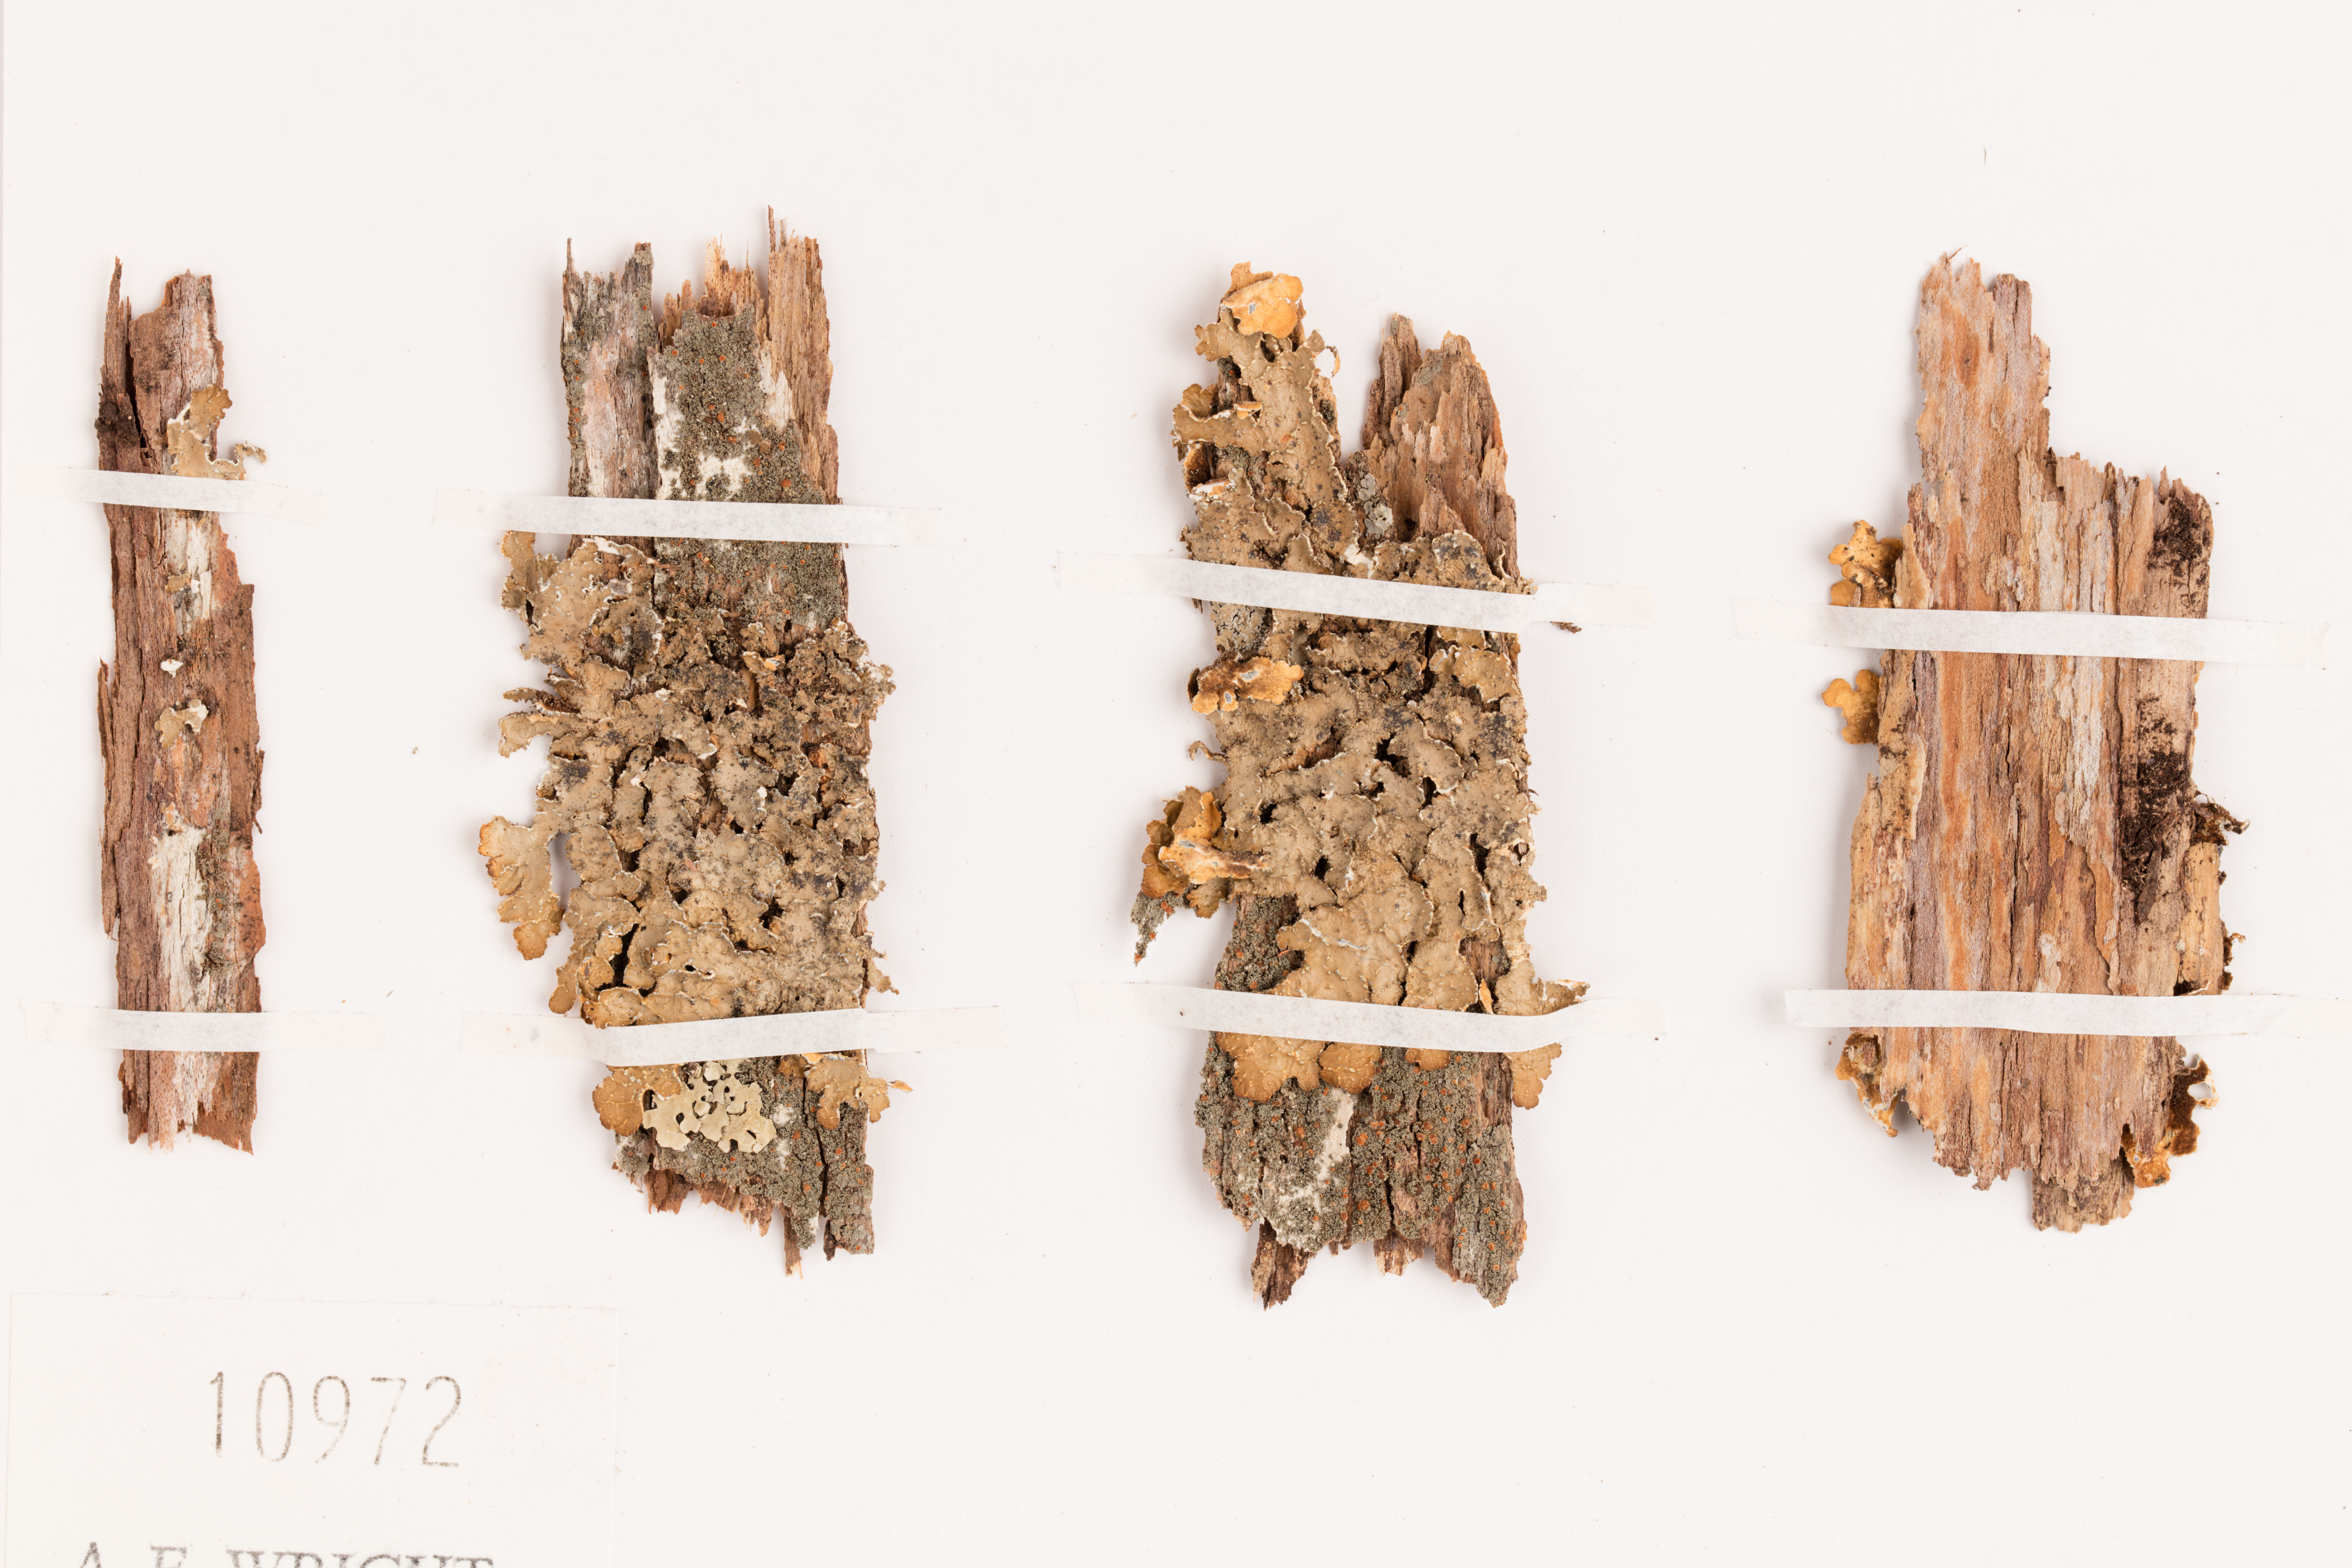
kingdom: Fungi
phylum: Ascomycota
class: Lecanoromycetes
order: Peltigerales
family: Lobariaceae
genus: Pseudocyphellaria
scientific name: Pseudocyphellaria bartlettii
